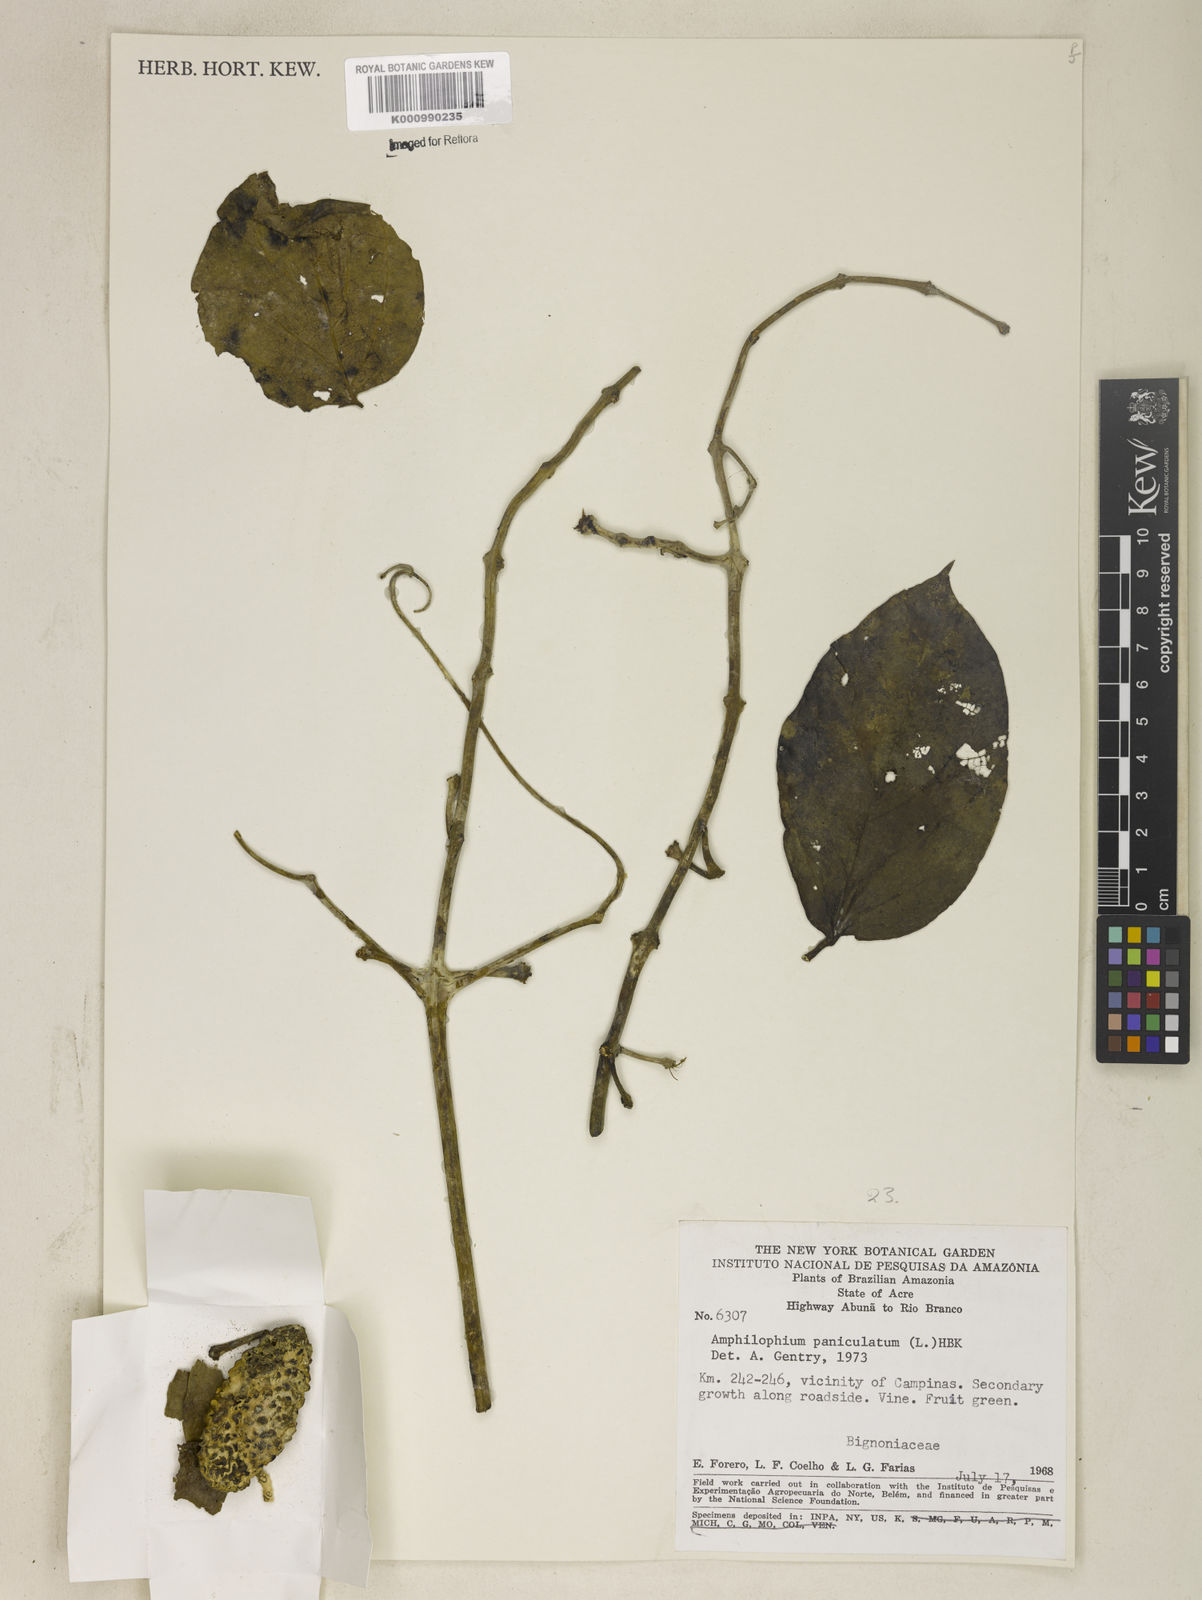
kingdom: Plantae
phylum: Tracheophyta
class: Magnoliopsida
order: Lamiales
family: Bignoniaceae
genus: Amphilophium
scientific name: Amphilophium paniculatum
